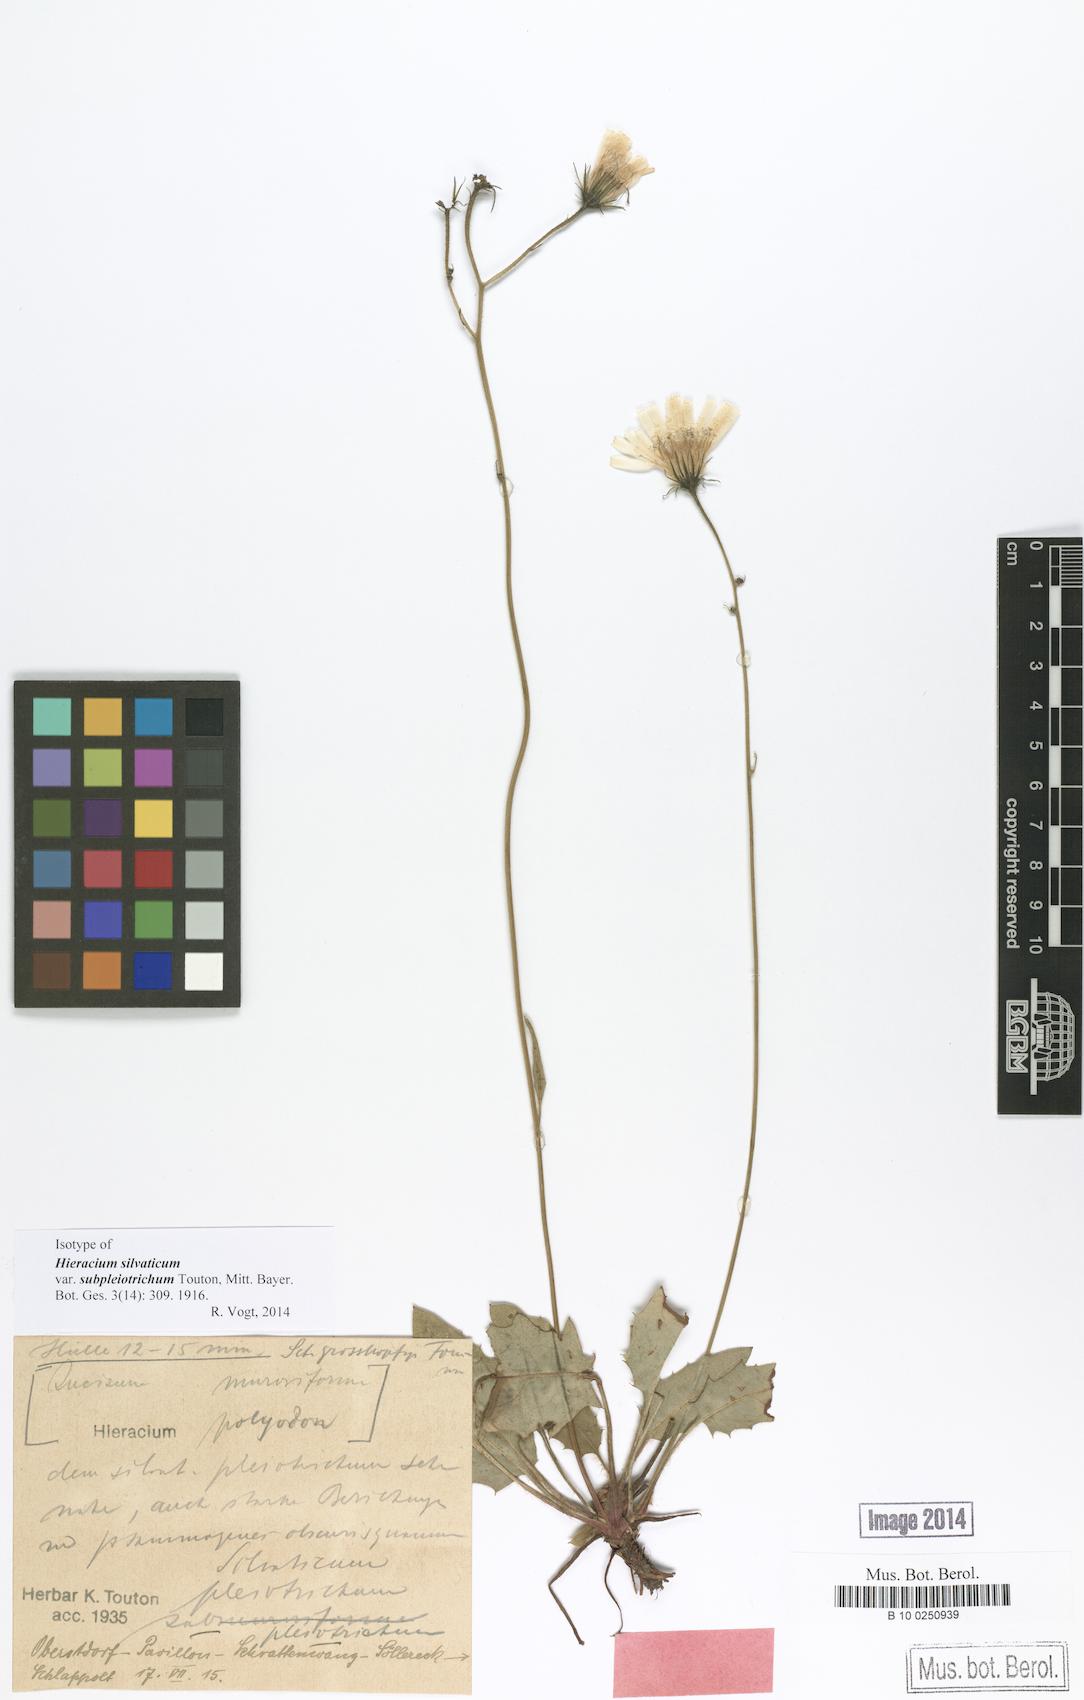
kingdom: Plantae
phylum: Tracheophyta
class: Magnoliopsida
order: Asterales
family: Asteraceae
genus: Hieracium
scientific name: Hieracium
